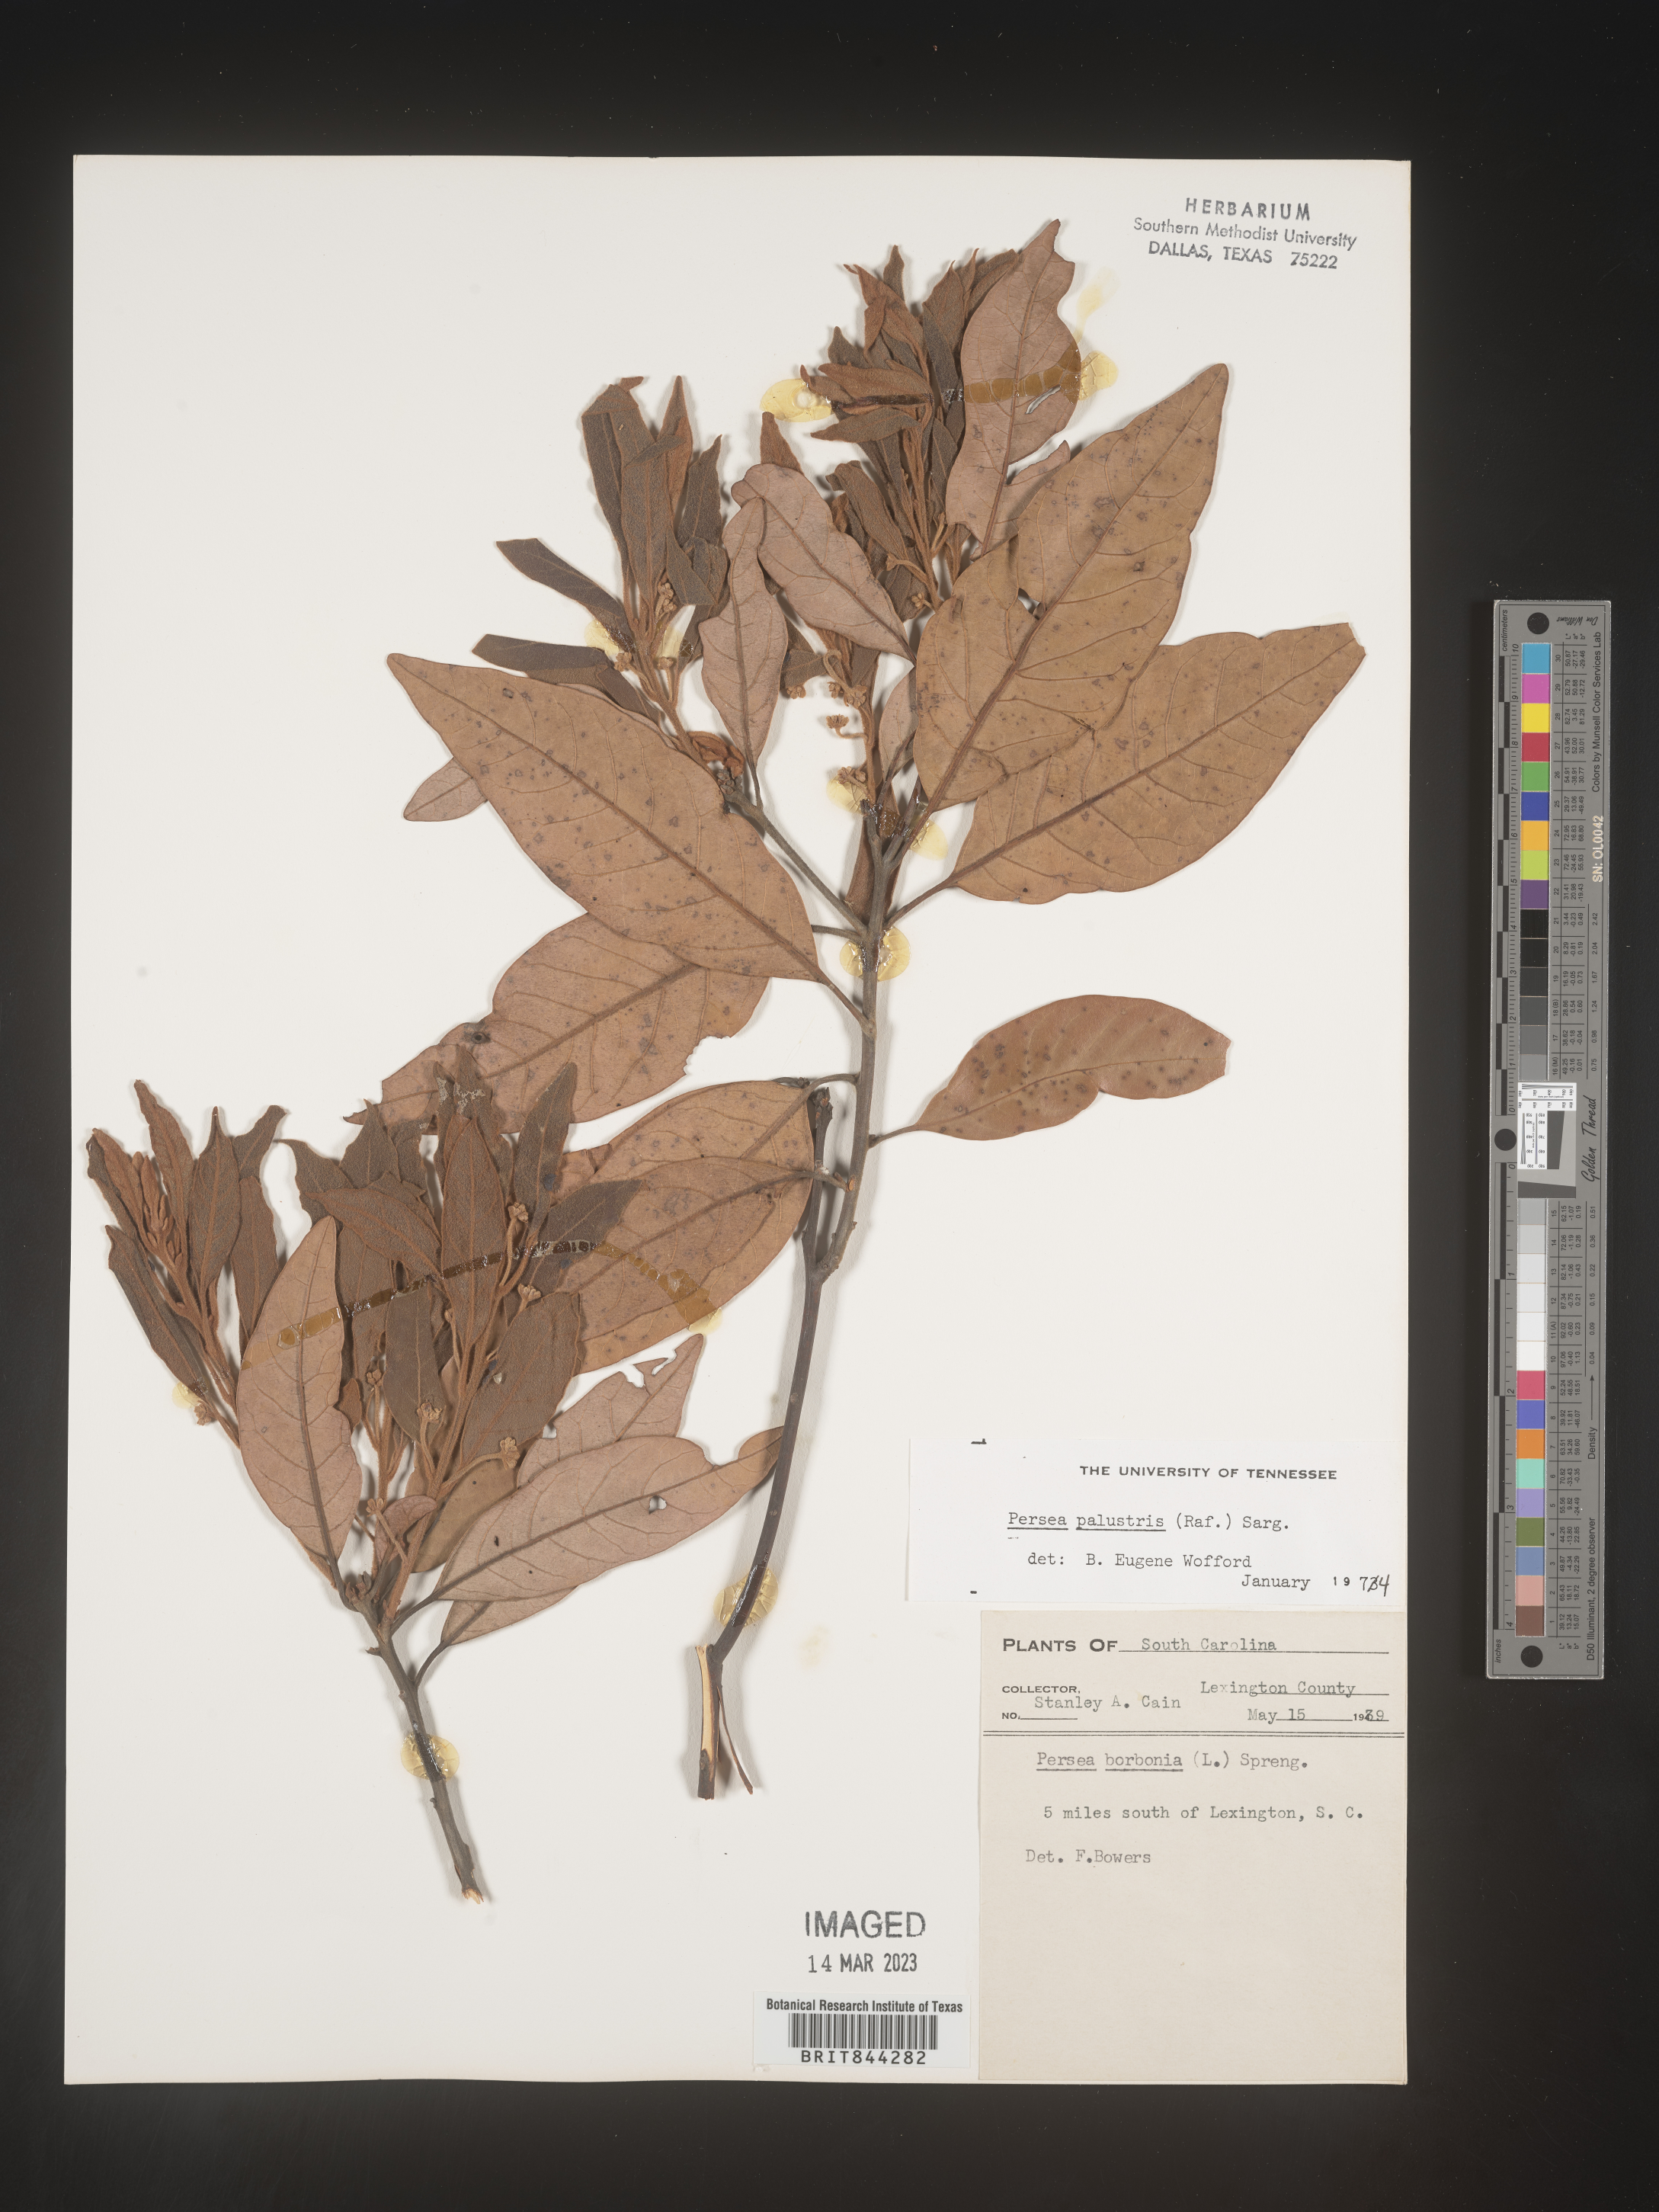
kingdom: Plantae
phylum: Tracheophyta
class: Magnoliopsida
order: Laurales
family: Lauraceae
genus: Persea
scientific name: Persea palustris
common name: Swampbay
